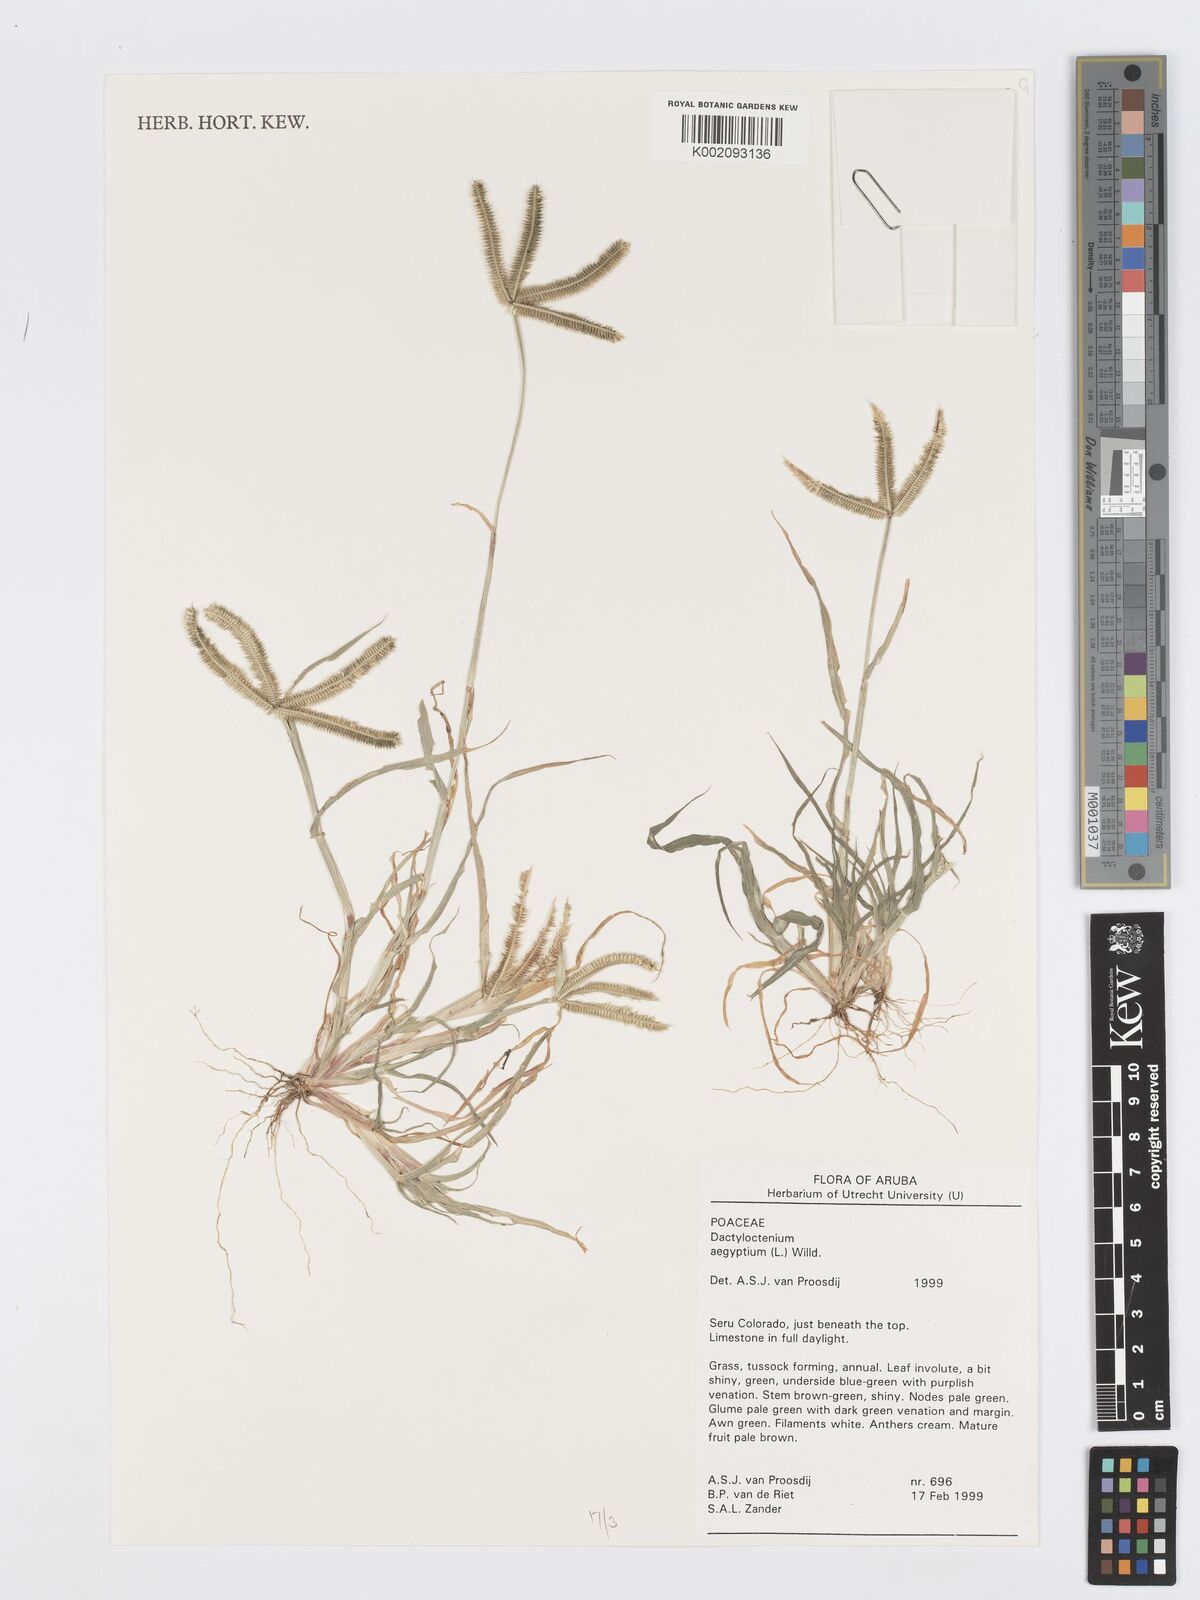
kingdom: Plantae
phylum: Tracheophyta
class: Liliopsida
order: Poales
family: Poaceae
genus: Dactyloctenium
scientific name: Dactyloctenium aegyptium
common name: Egyptian grass
